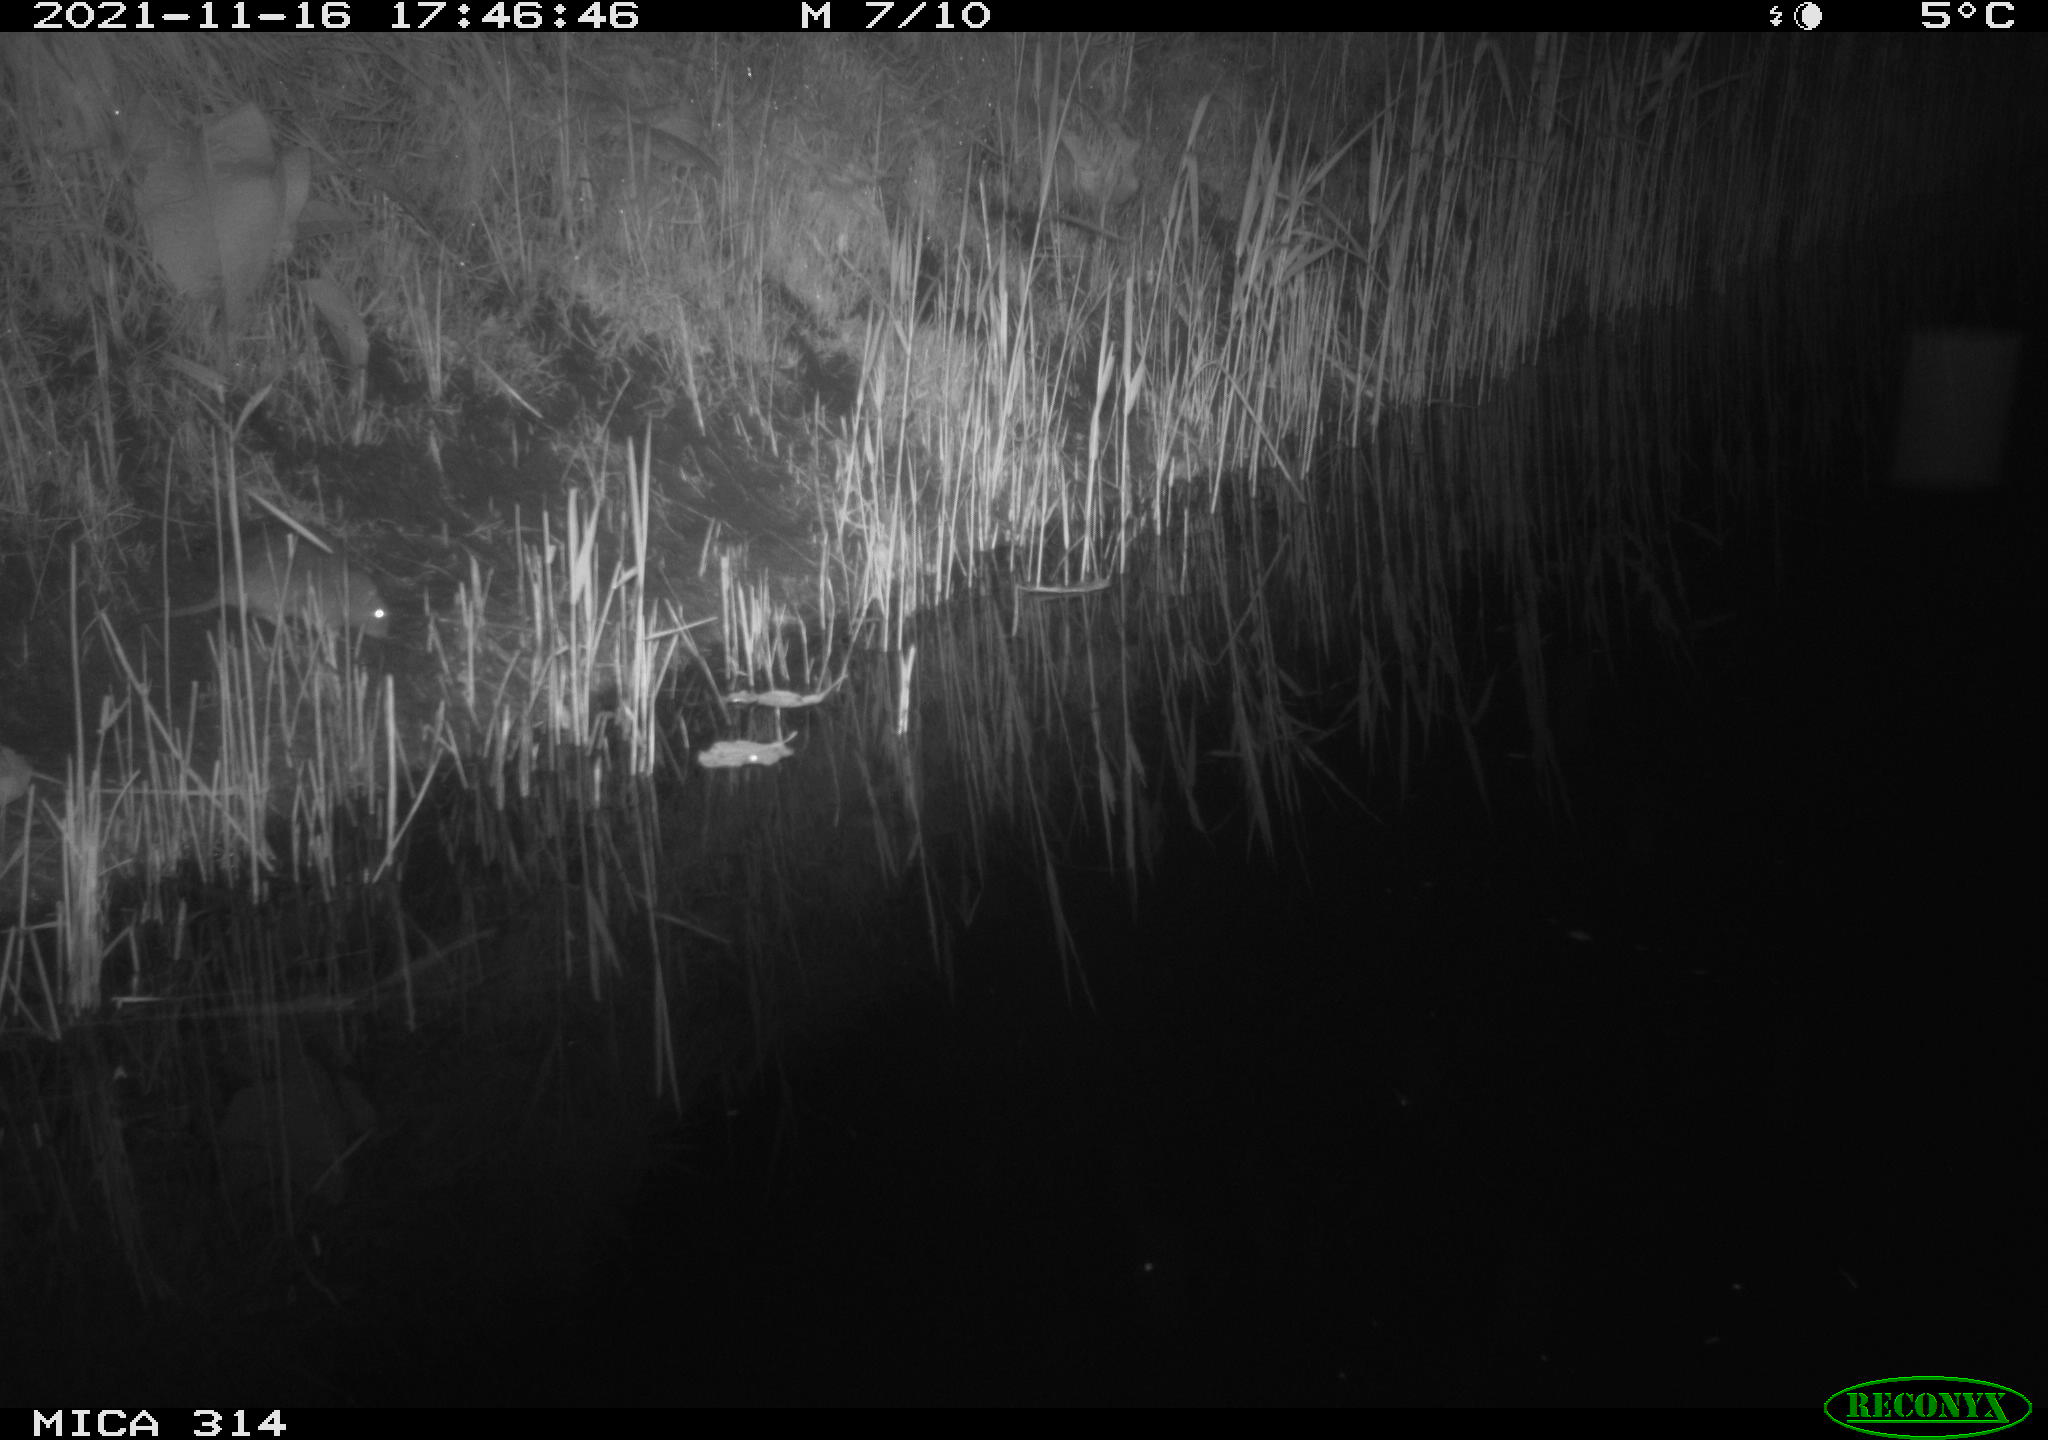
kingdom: Animalia
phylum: Chordata
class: Mammalia
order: Rodentia
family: Muridae
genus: Rattus
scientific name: Rattus norvegicus
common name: Brown rat
